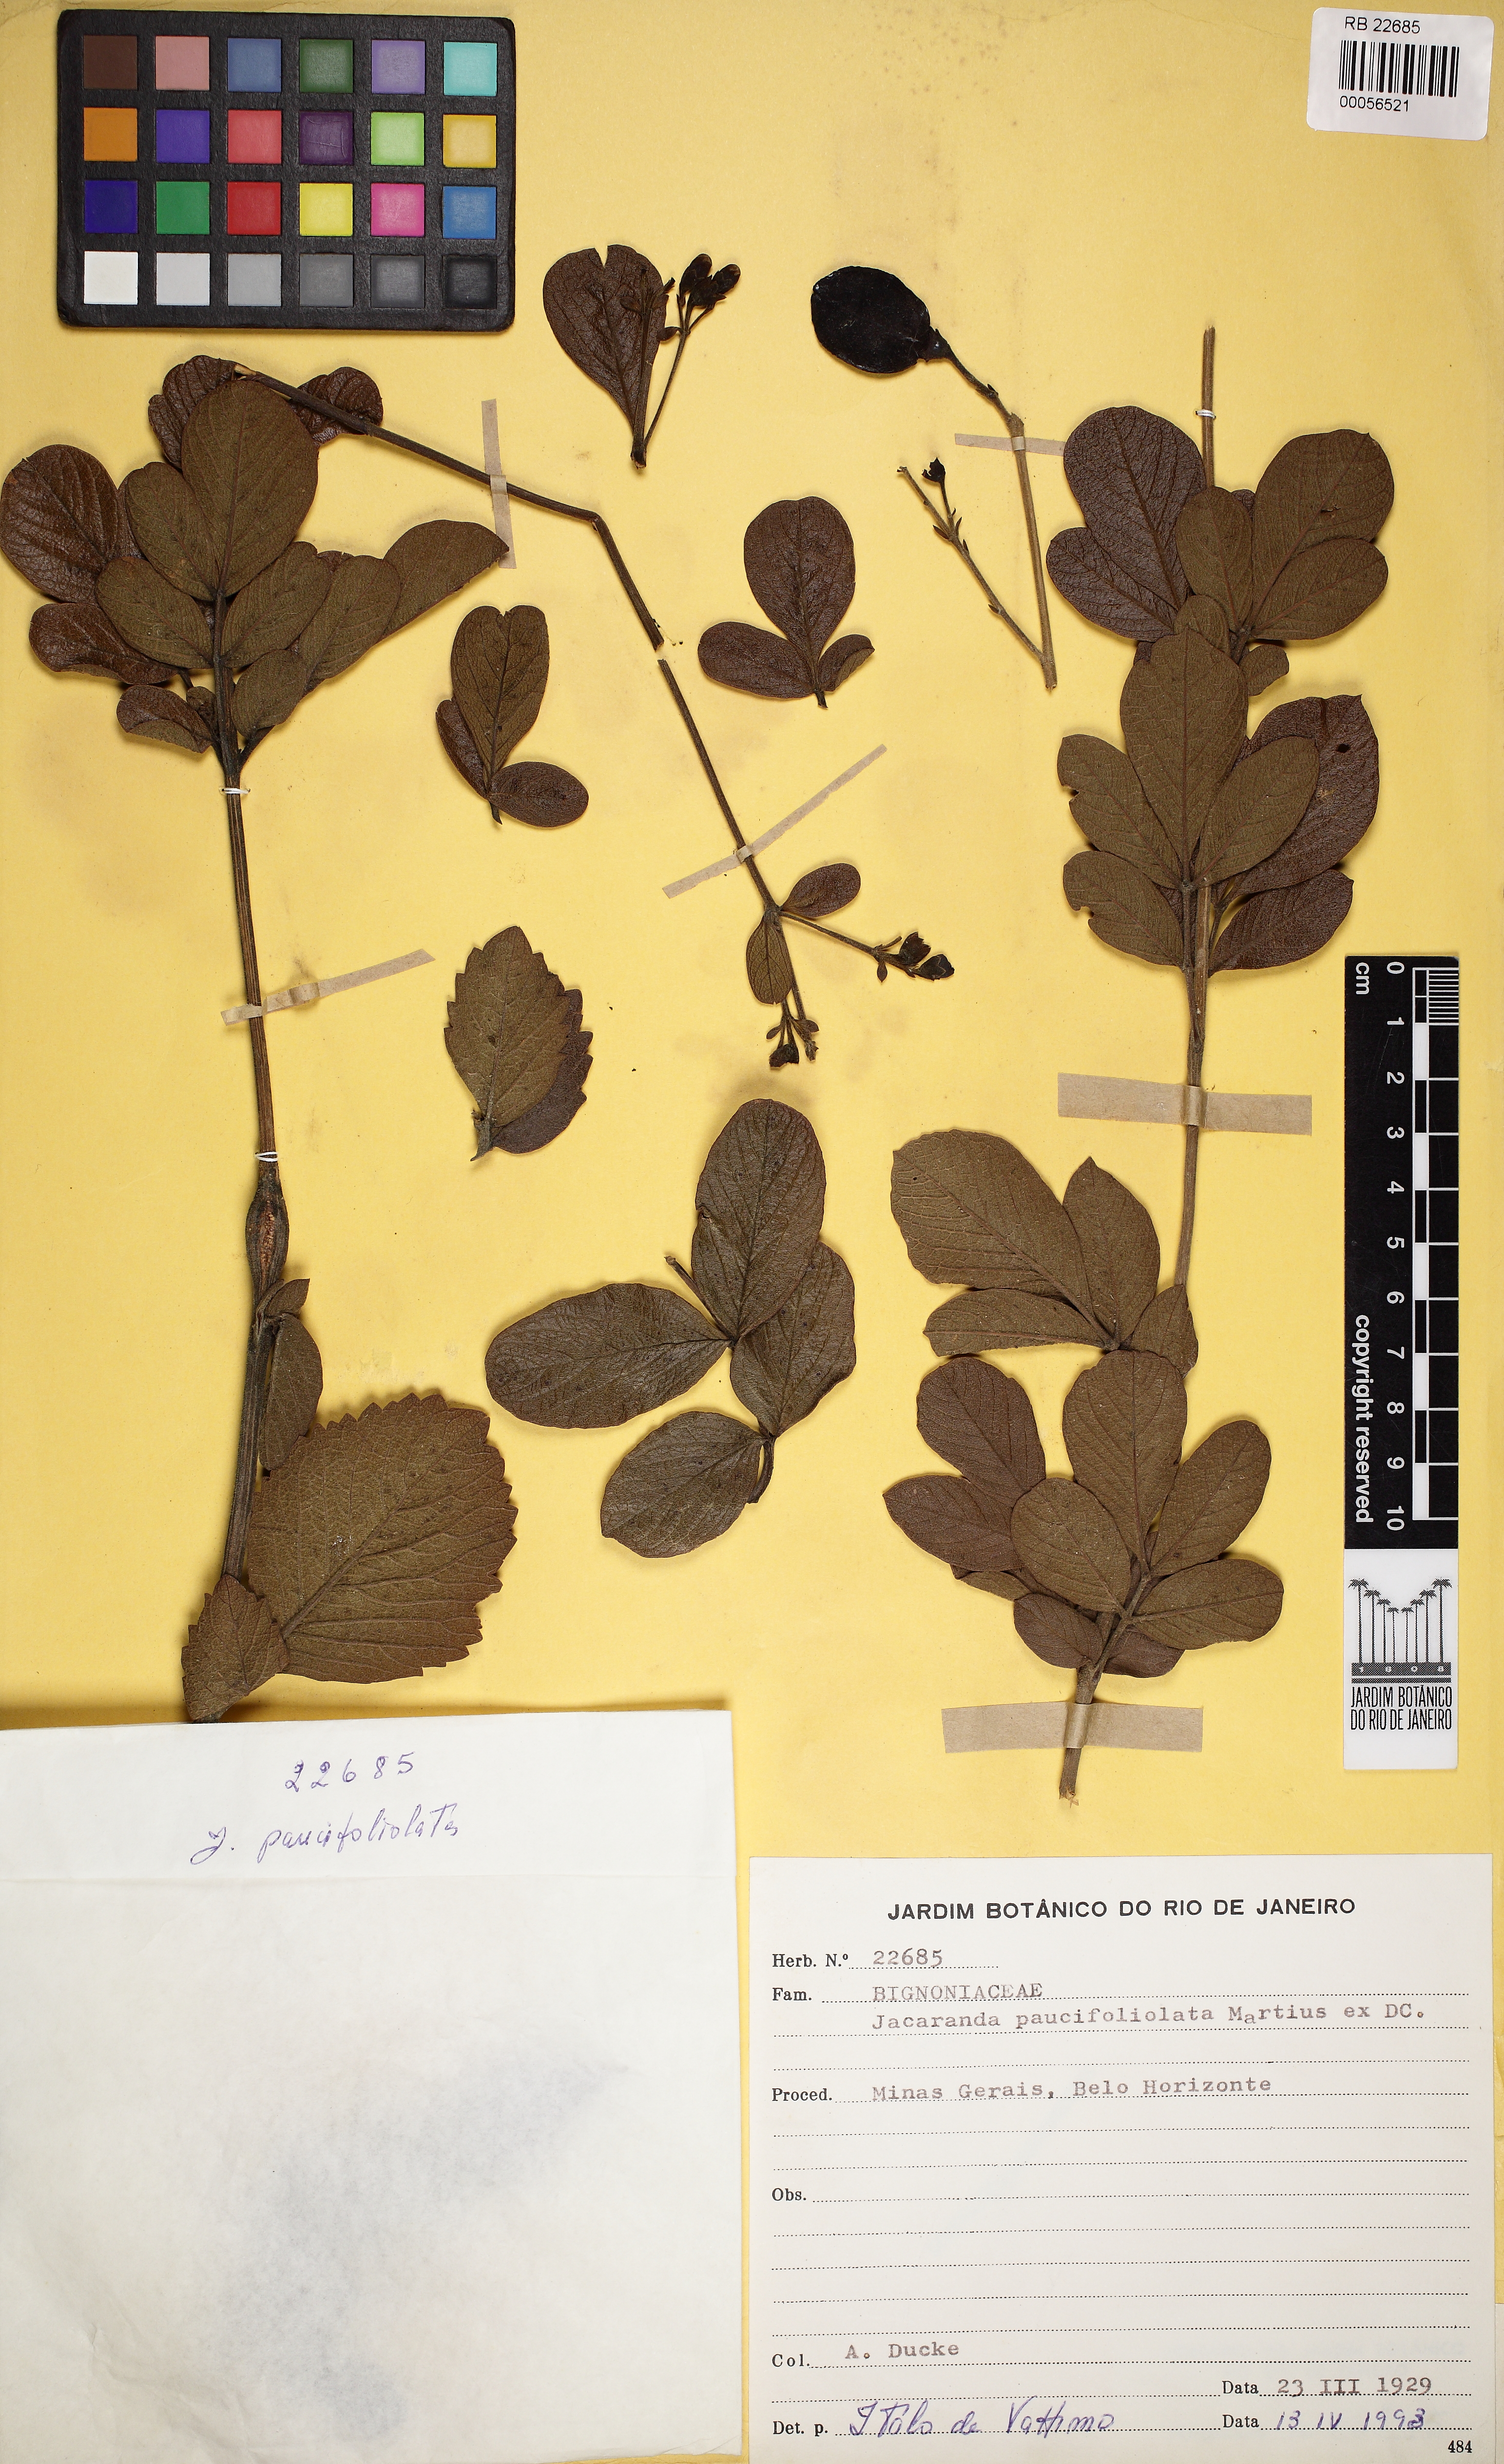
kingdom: Plantae
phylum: Tracheophyta
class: Magnoliopsida
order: Lamiales
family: Bignoniaceae
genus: Jacaranda
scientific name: Jacaranda paucifoliata
